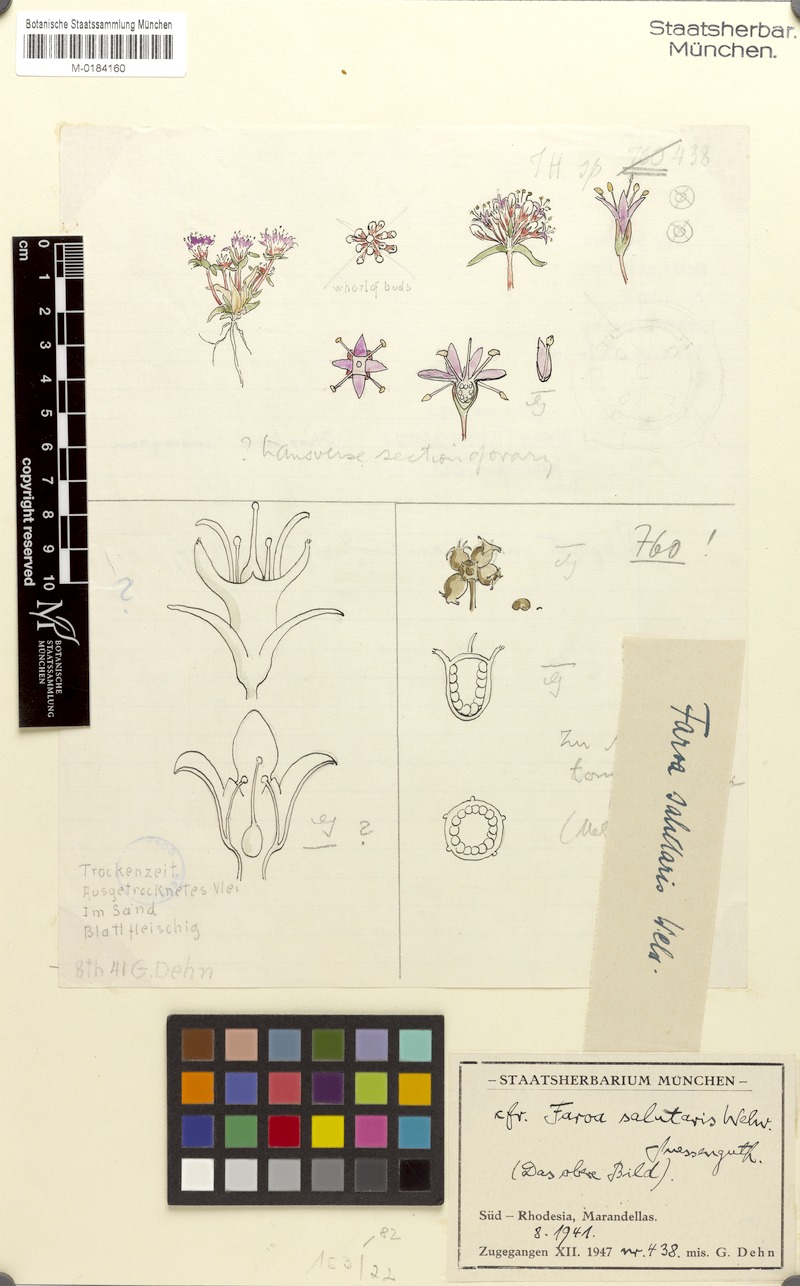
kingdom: Plantae
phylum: Tracheophyta
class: Magnoliopsida
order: Gentianales
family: Gentianaceae
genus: Faroa
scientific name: Faroa salutaris
